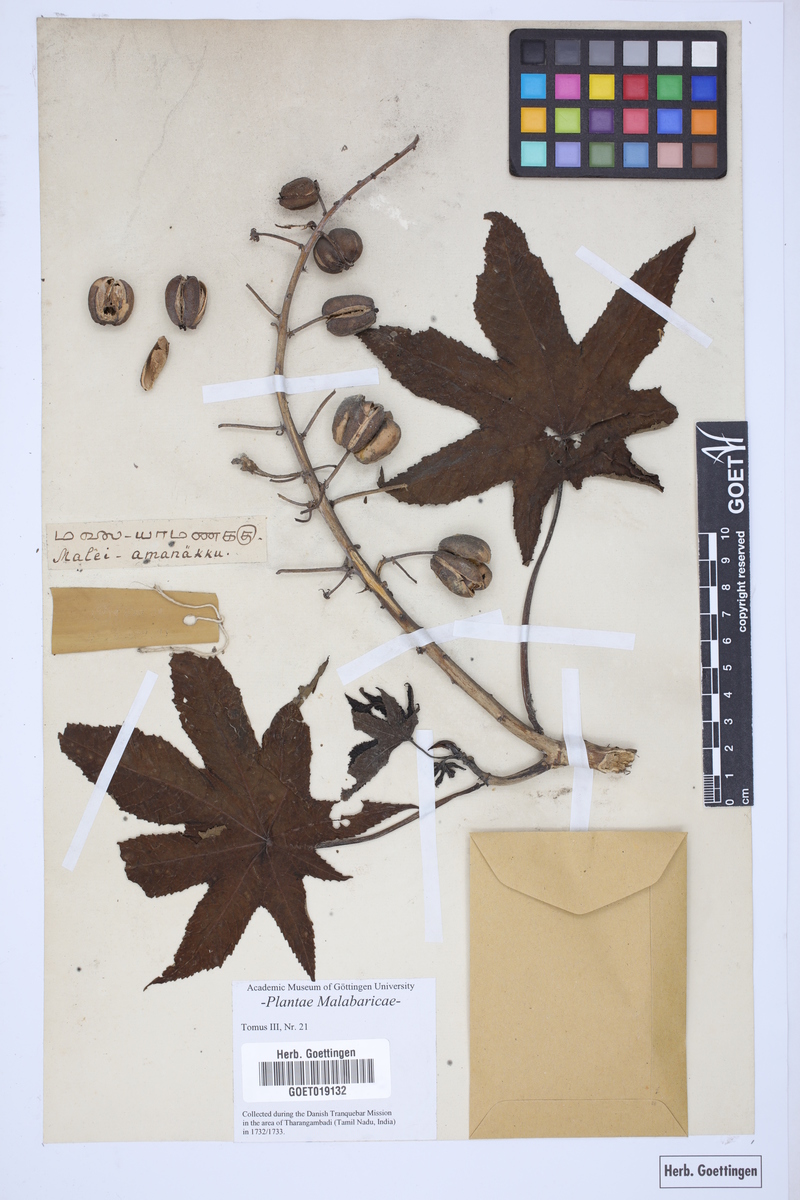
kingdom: Plantae
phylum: Tracheophyta
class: Magnoliopsida
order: Malpighiales
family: Euphorbiaceae
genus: Ricinus
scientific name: Ricinus communis
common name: Castor-oil-plant
